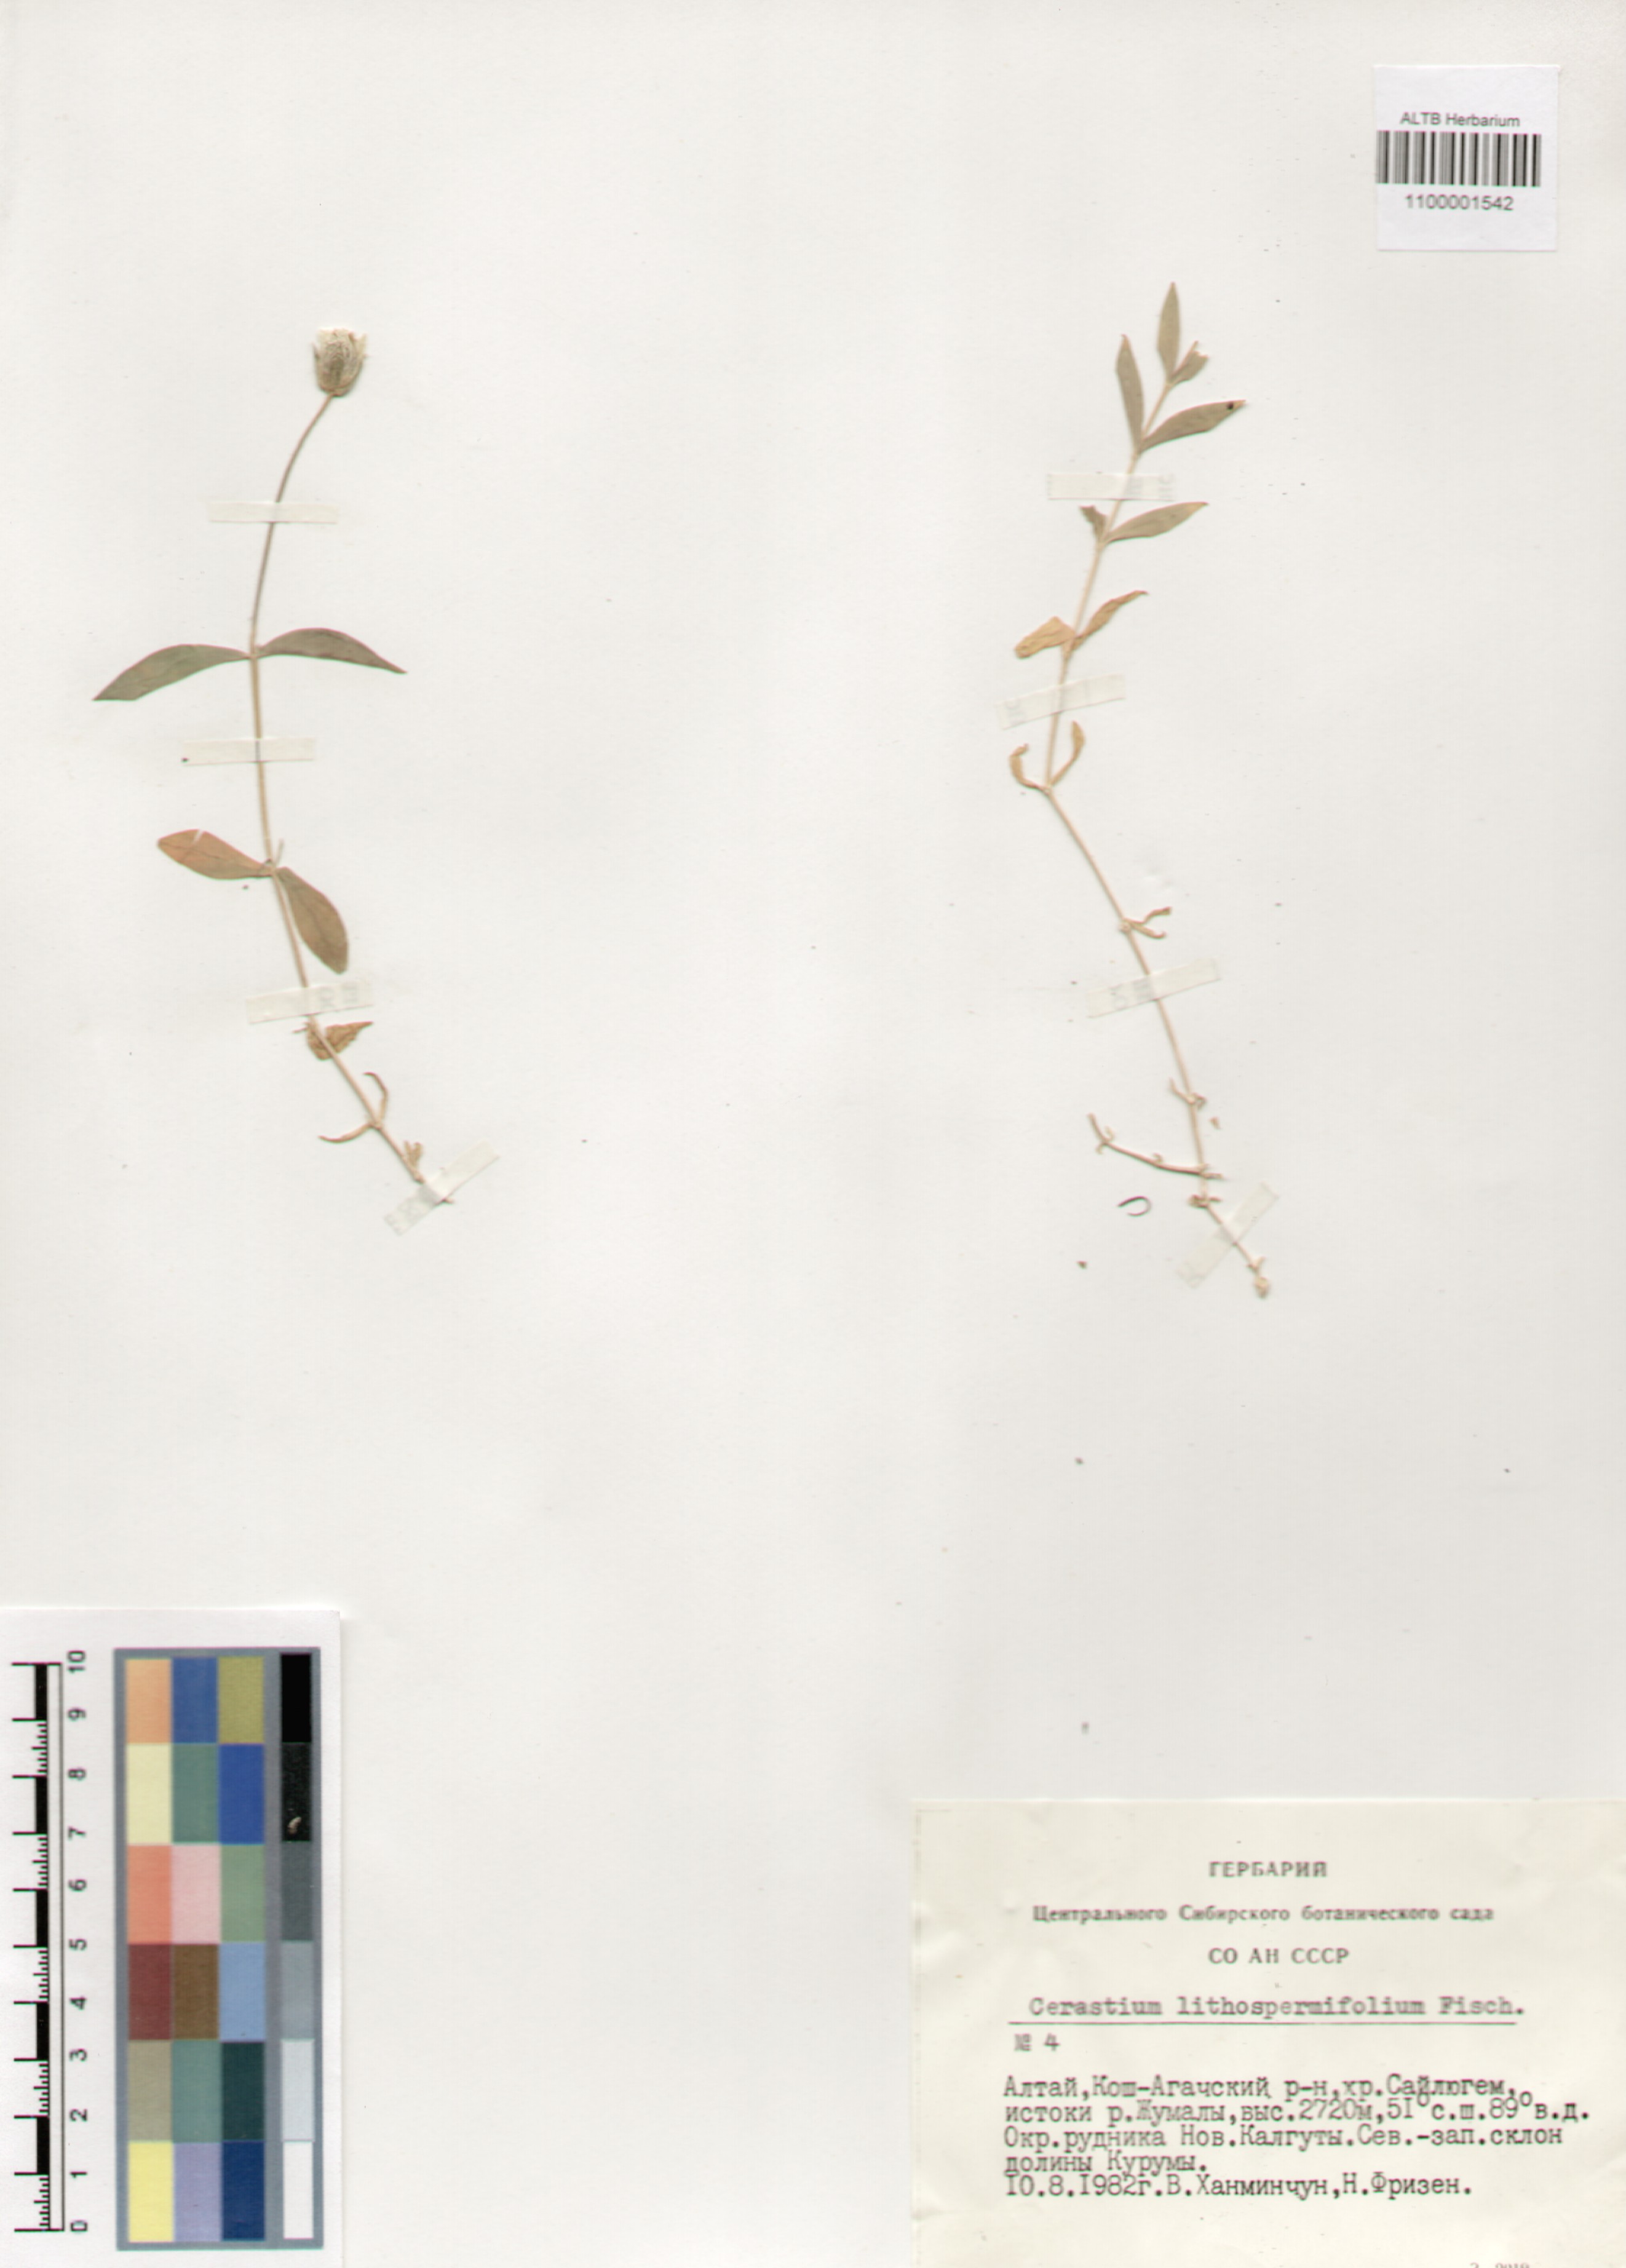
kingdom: Plantae
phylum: Tracheophyta
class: Magnoliopsida
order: Caryophyllales
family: Caryophyllaceae
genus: Cerastium
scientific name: Cerastium lithospermifolium
